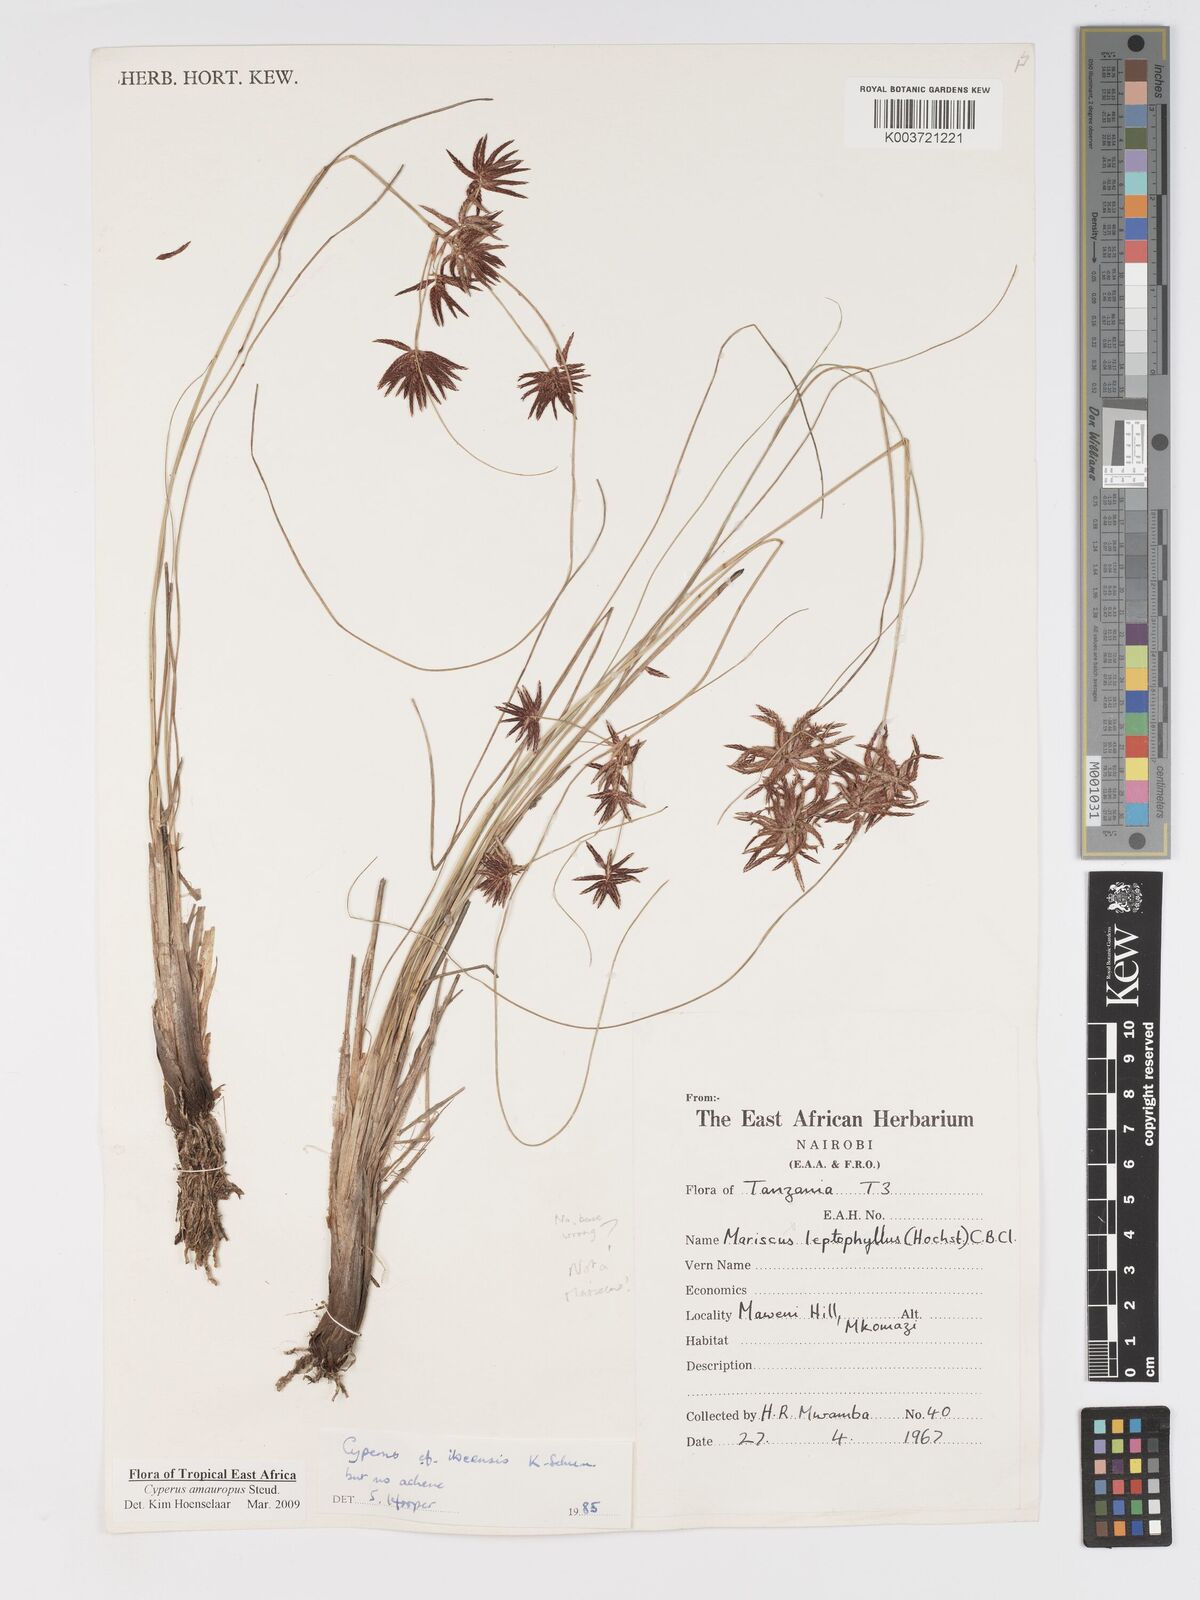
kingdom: Plantae
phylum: Tracheophyta
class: Liliopsida
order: Poales
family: Cyperaceae
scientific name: Cyperaceae
